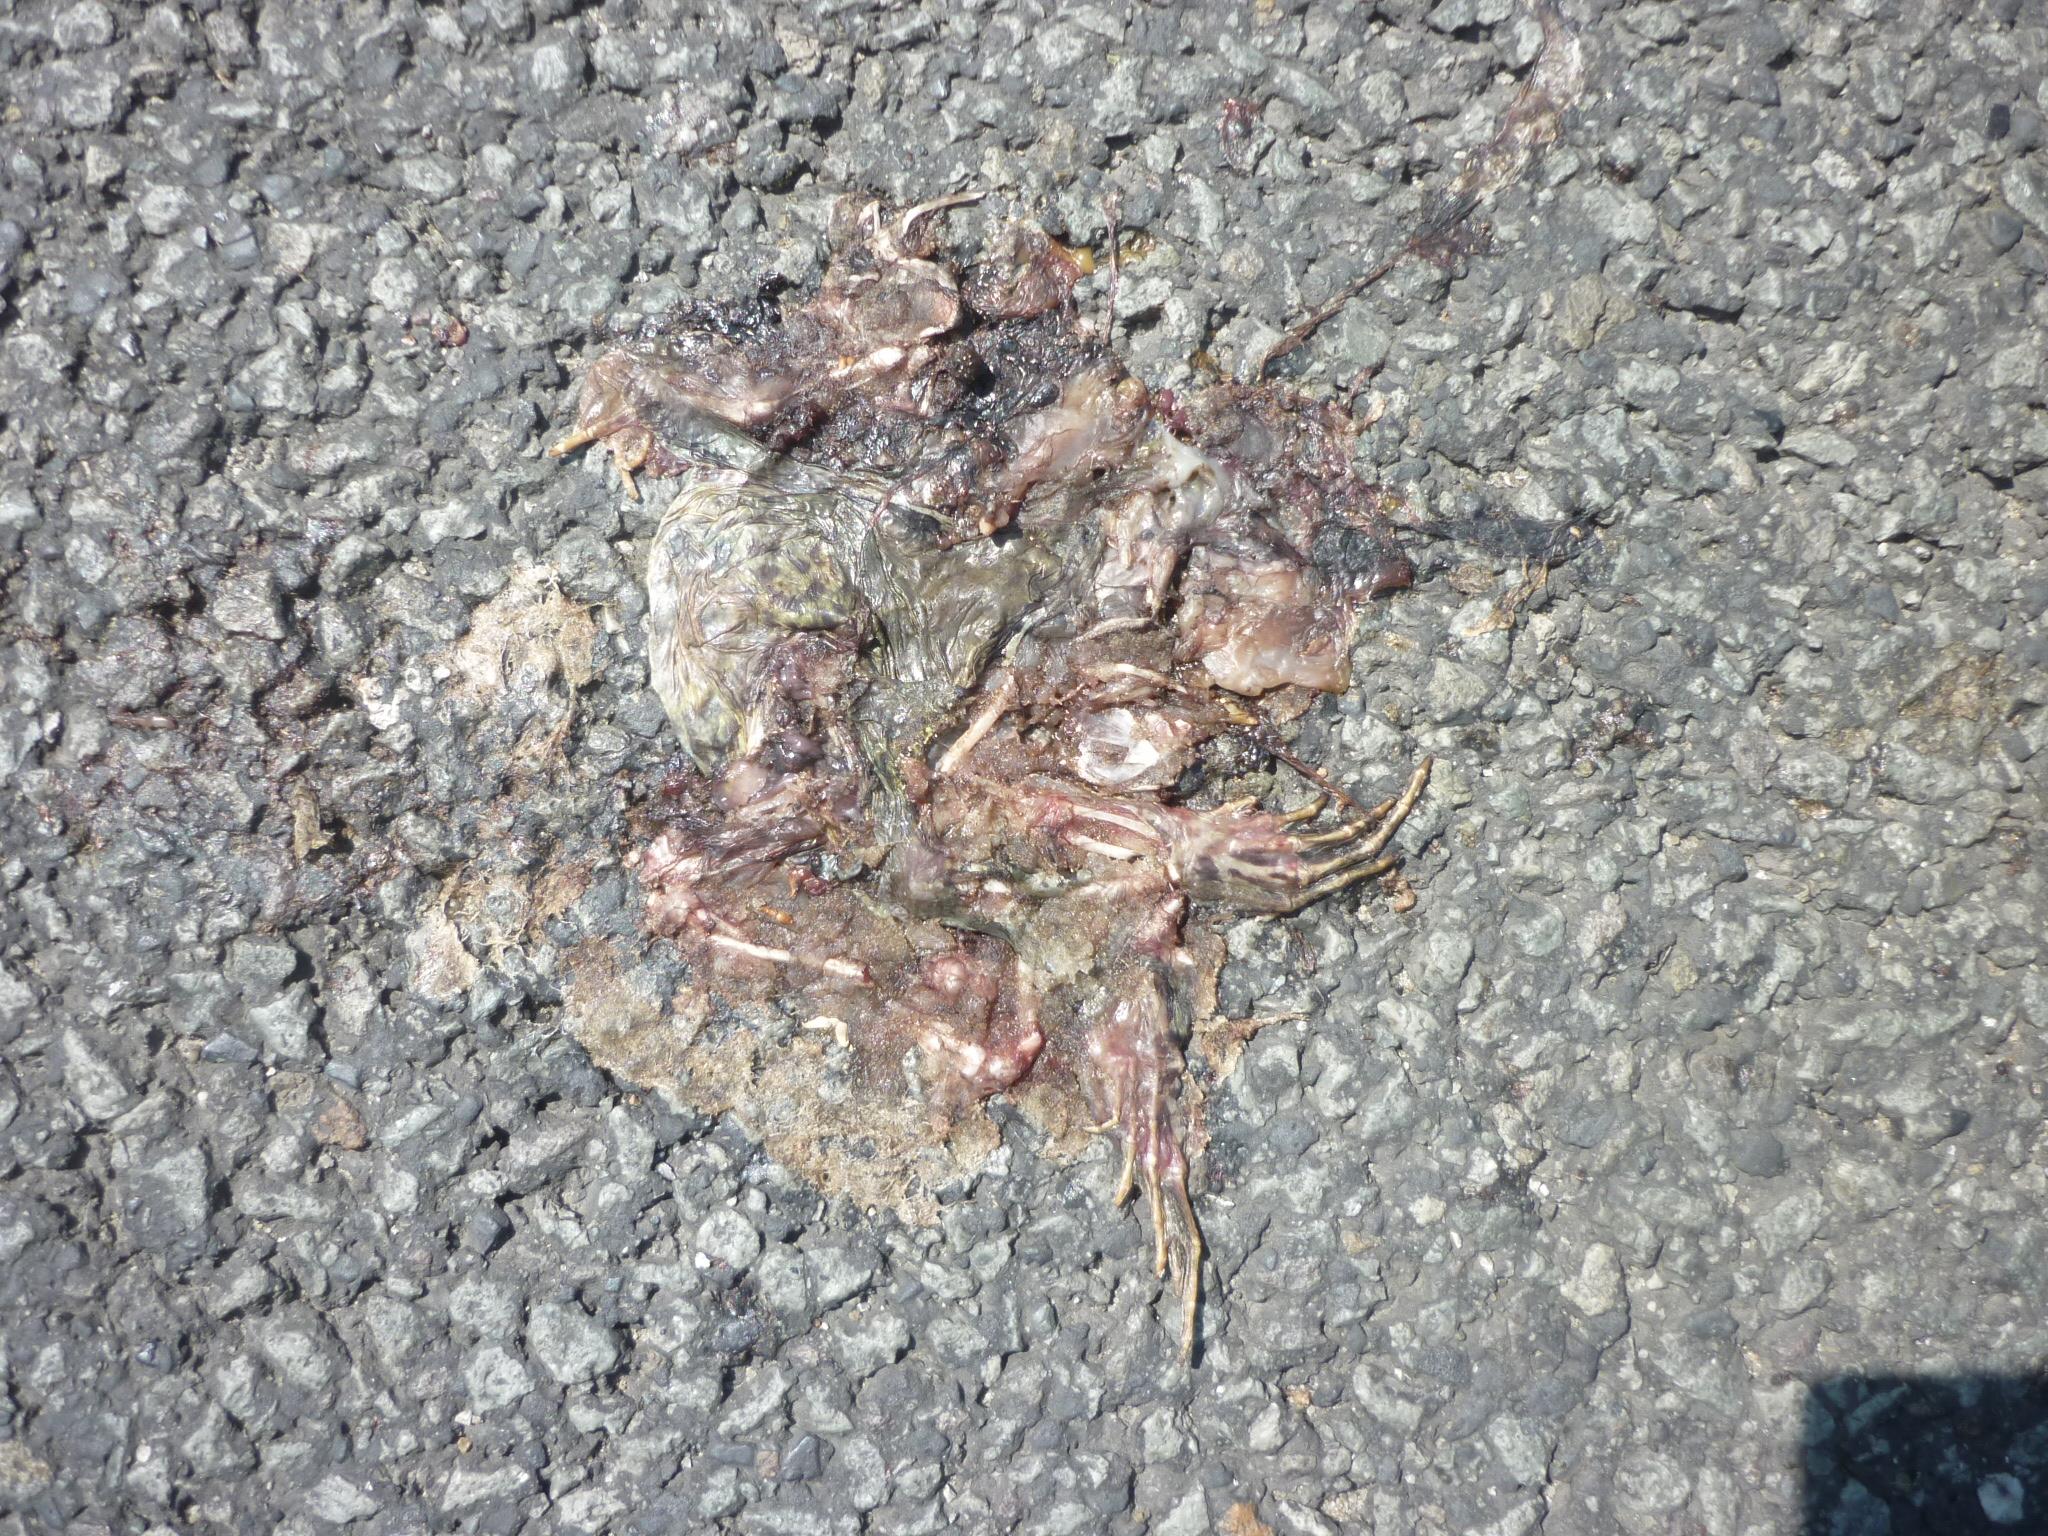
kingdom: Animalia
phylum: Chordata
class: Amphibia
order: Anura
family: Bufonidae
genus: Bufo
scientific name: Bufo bufo
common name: Common toad
